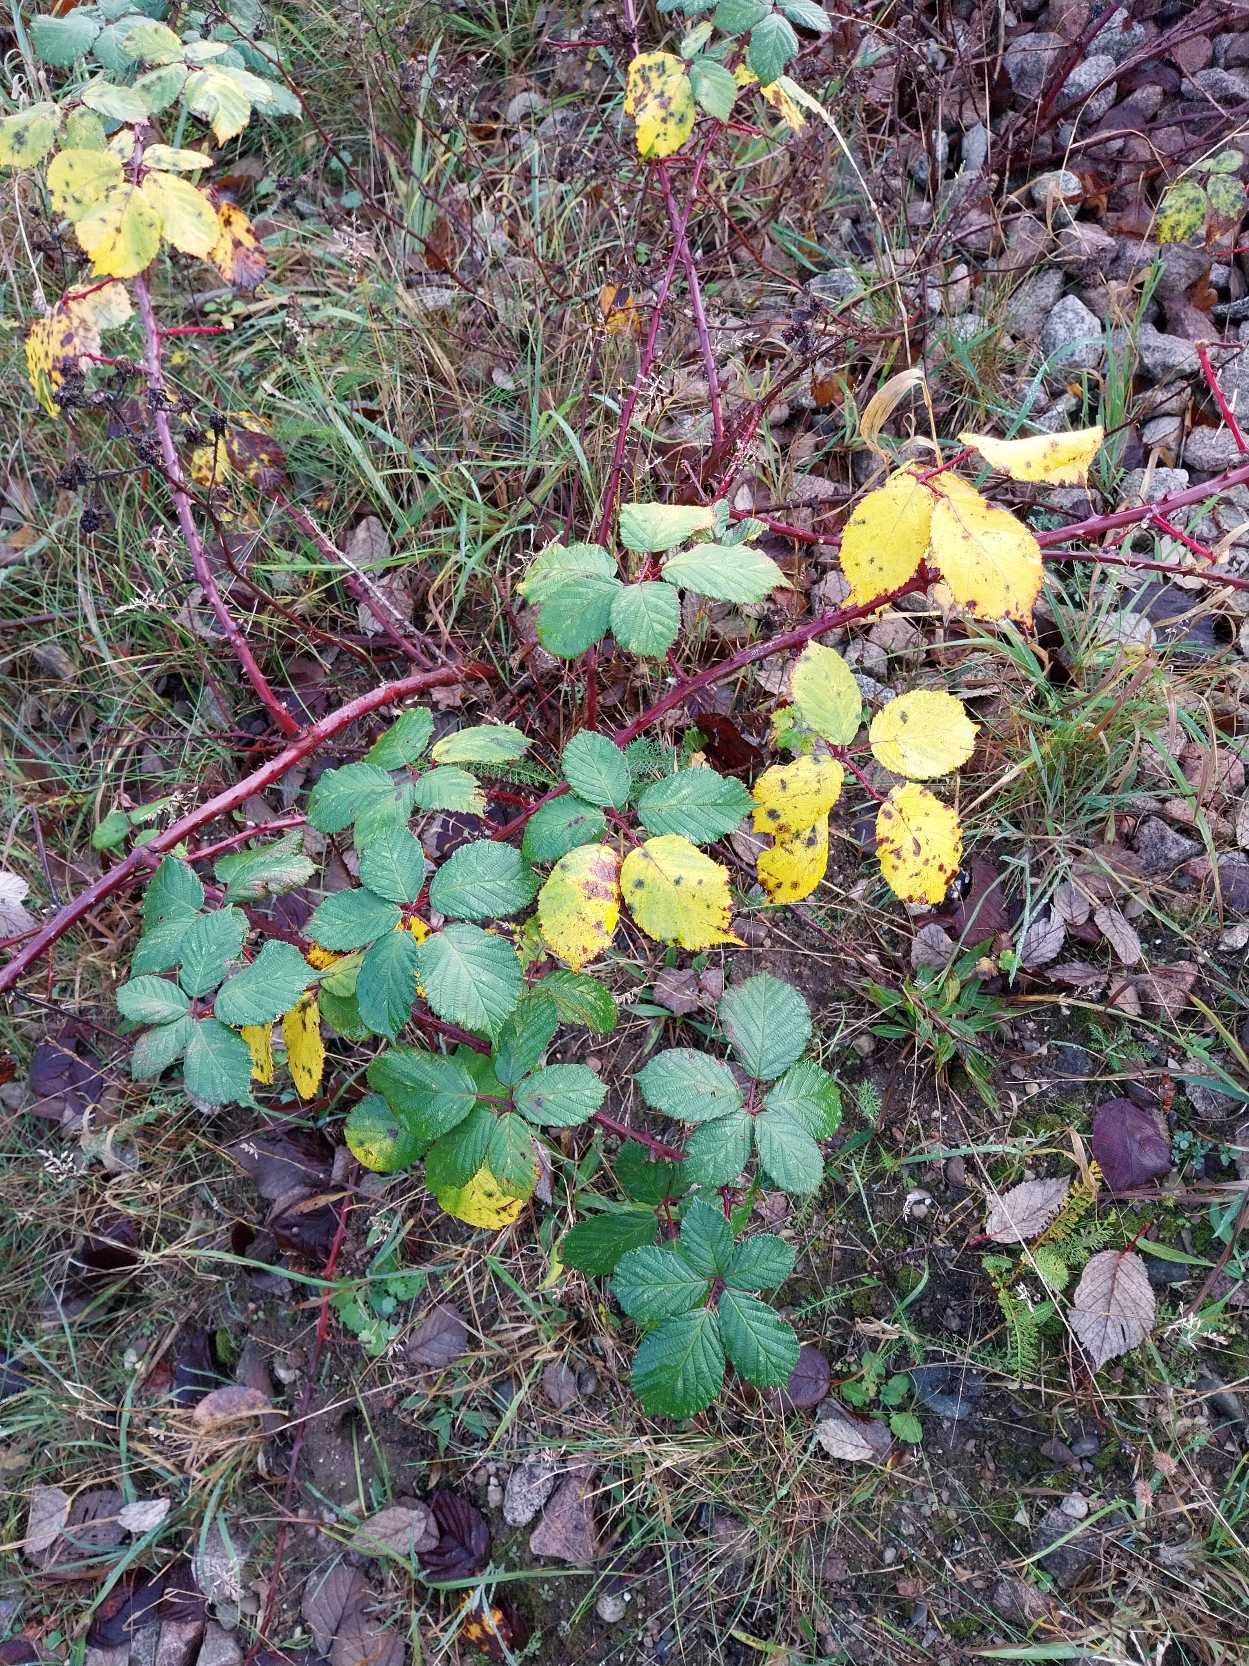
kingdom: Plantae
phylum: Tracheophyta
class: Magnoliopsida
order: Rosales
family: Rosaceae
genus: Rubus
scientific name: Rubus armeniacus
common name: Armensk brombær
